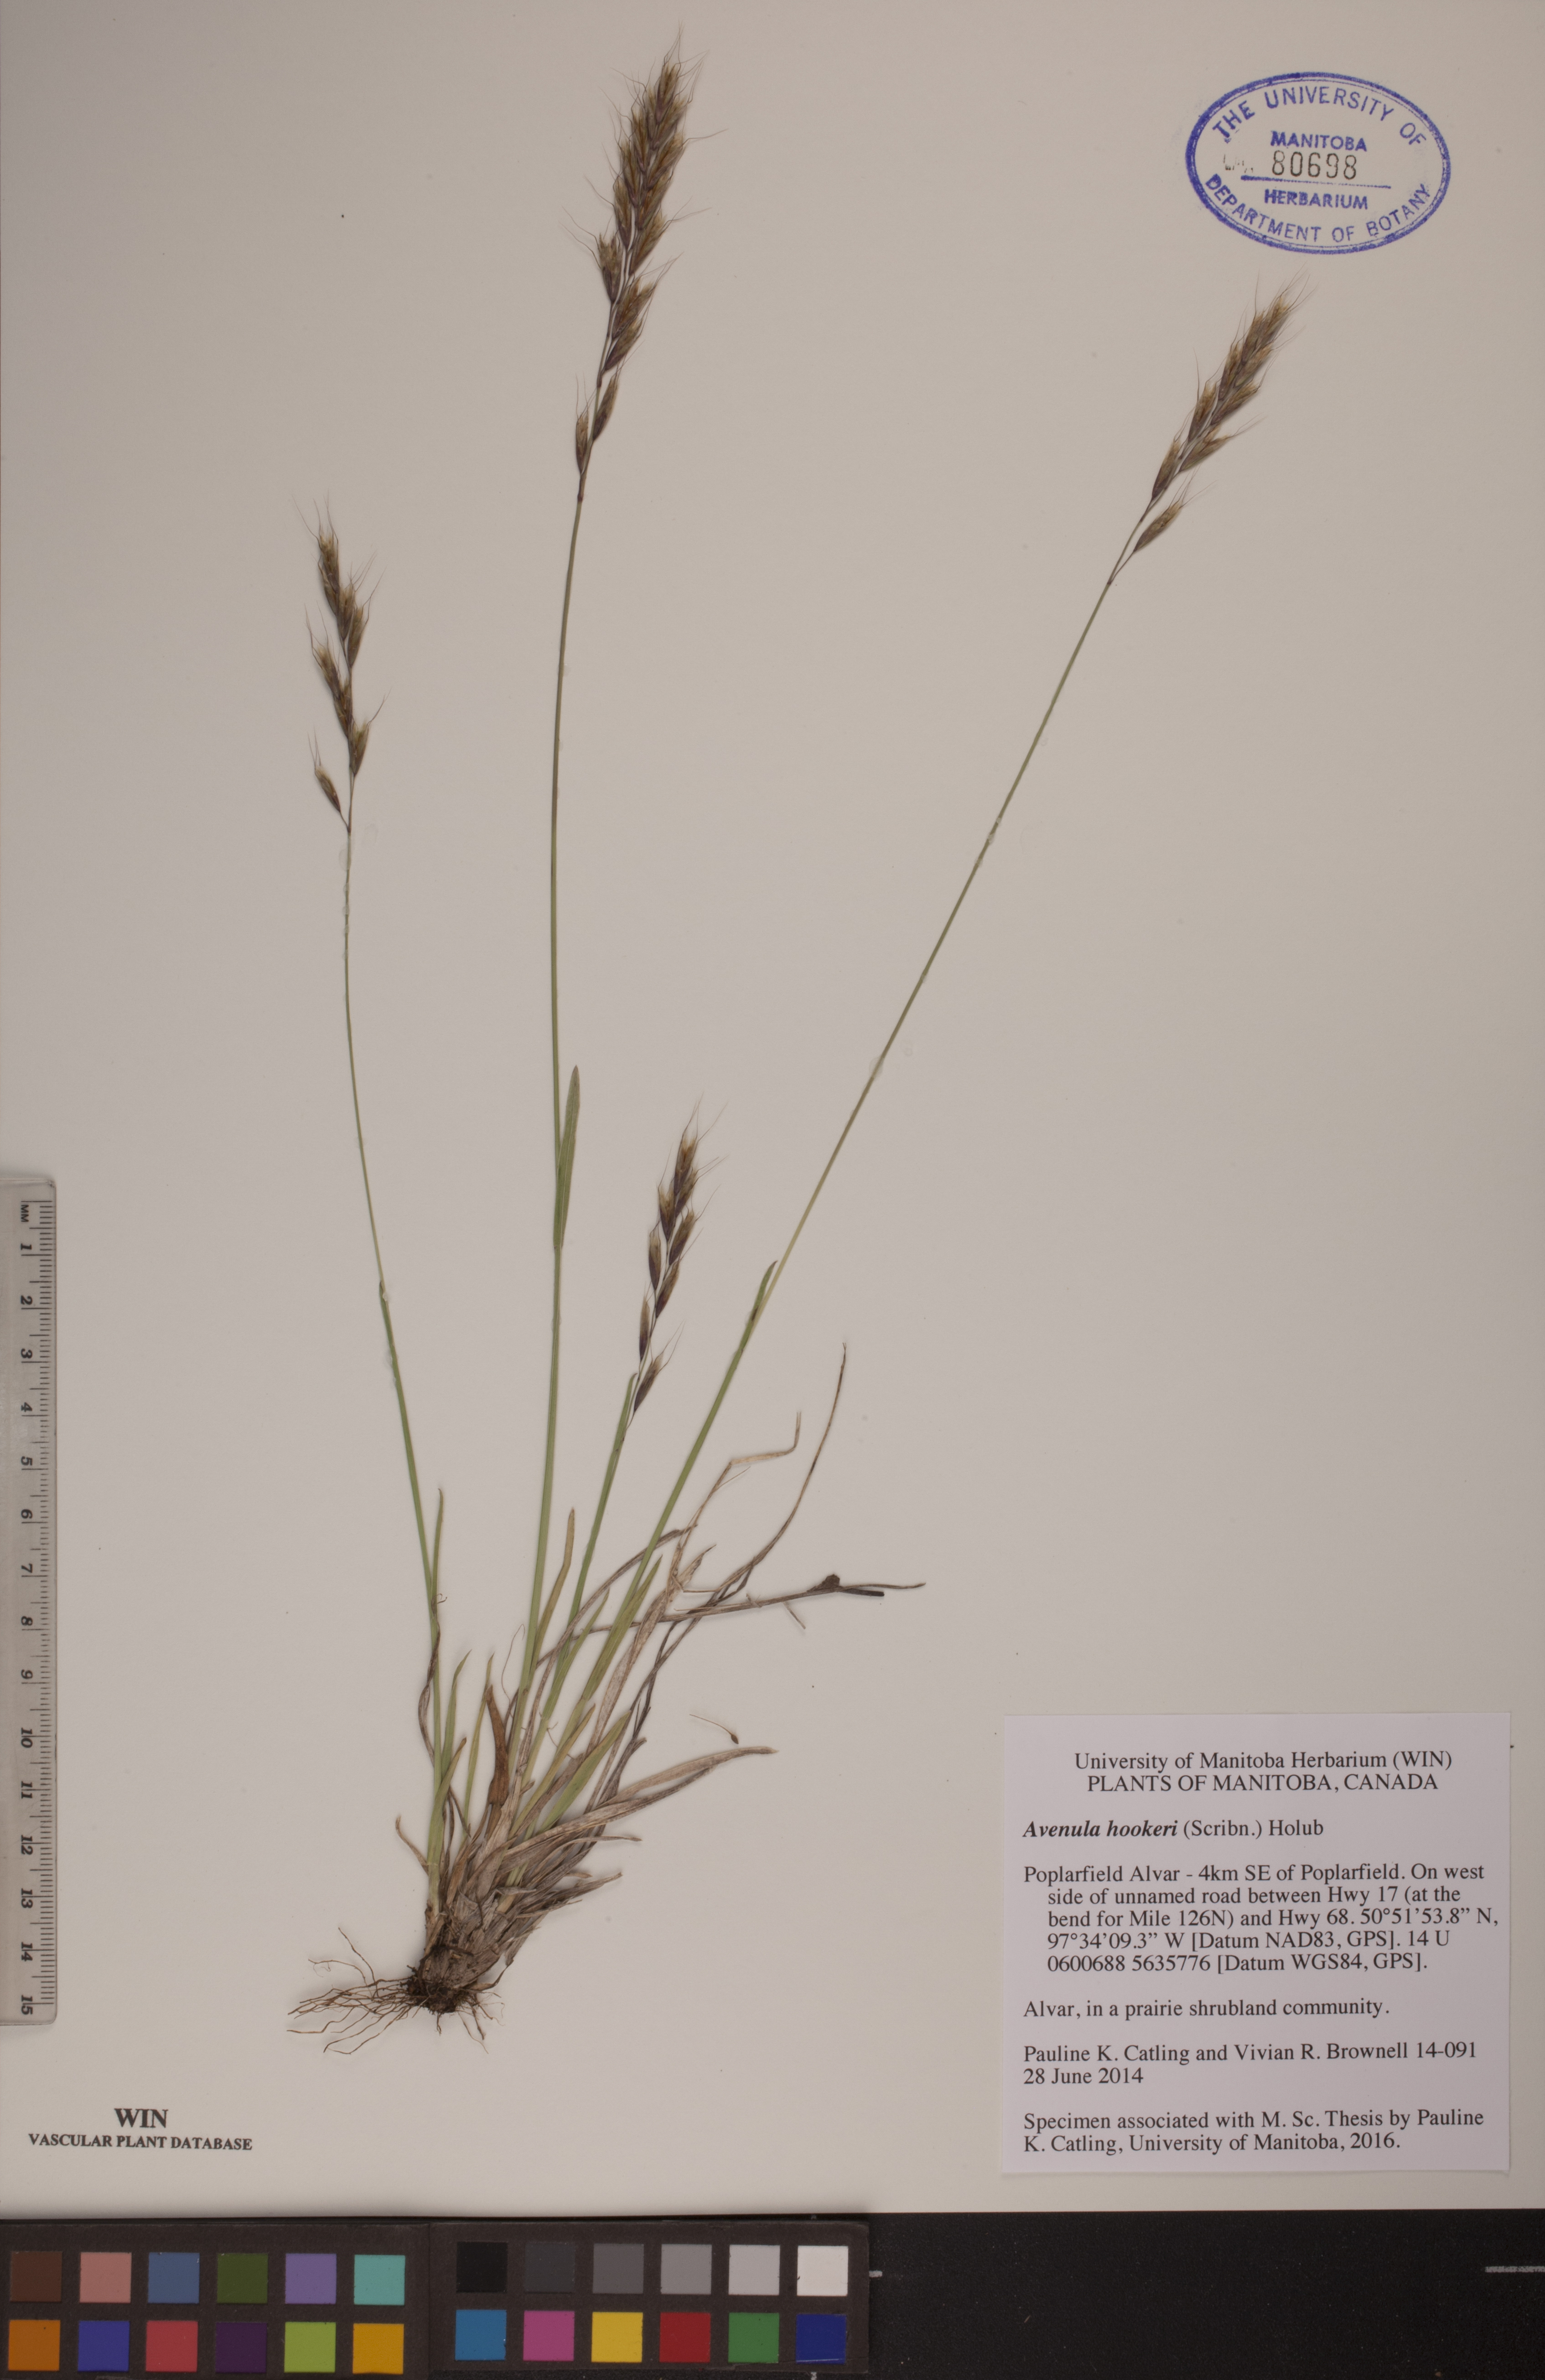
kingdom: Plantae
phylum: Tracheophyta
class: Liliopsida
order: Poales
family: Poaceae
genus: Helictochloa
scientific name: Helictochloa hookeri
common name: Hooker's alpine oatgrass
